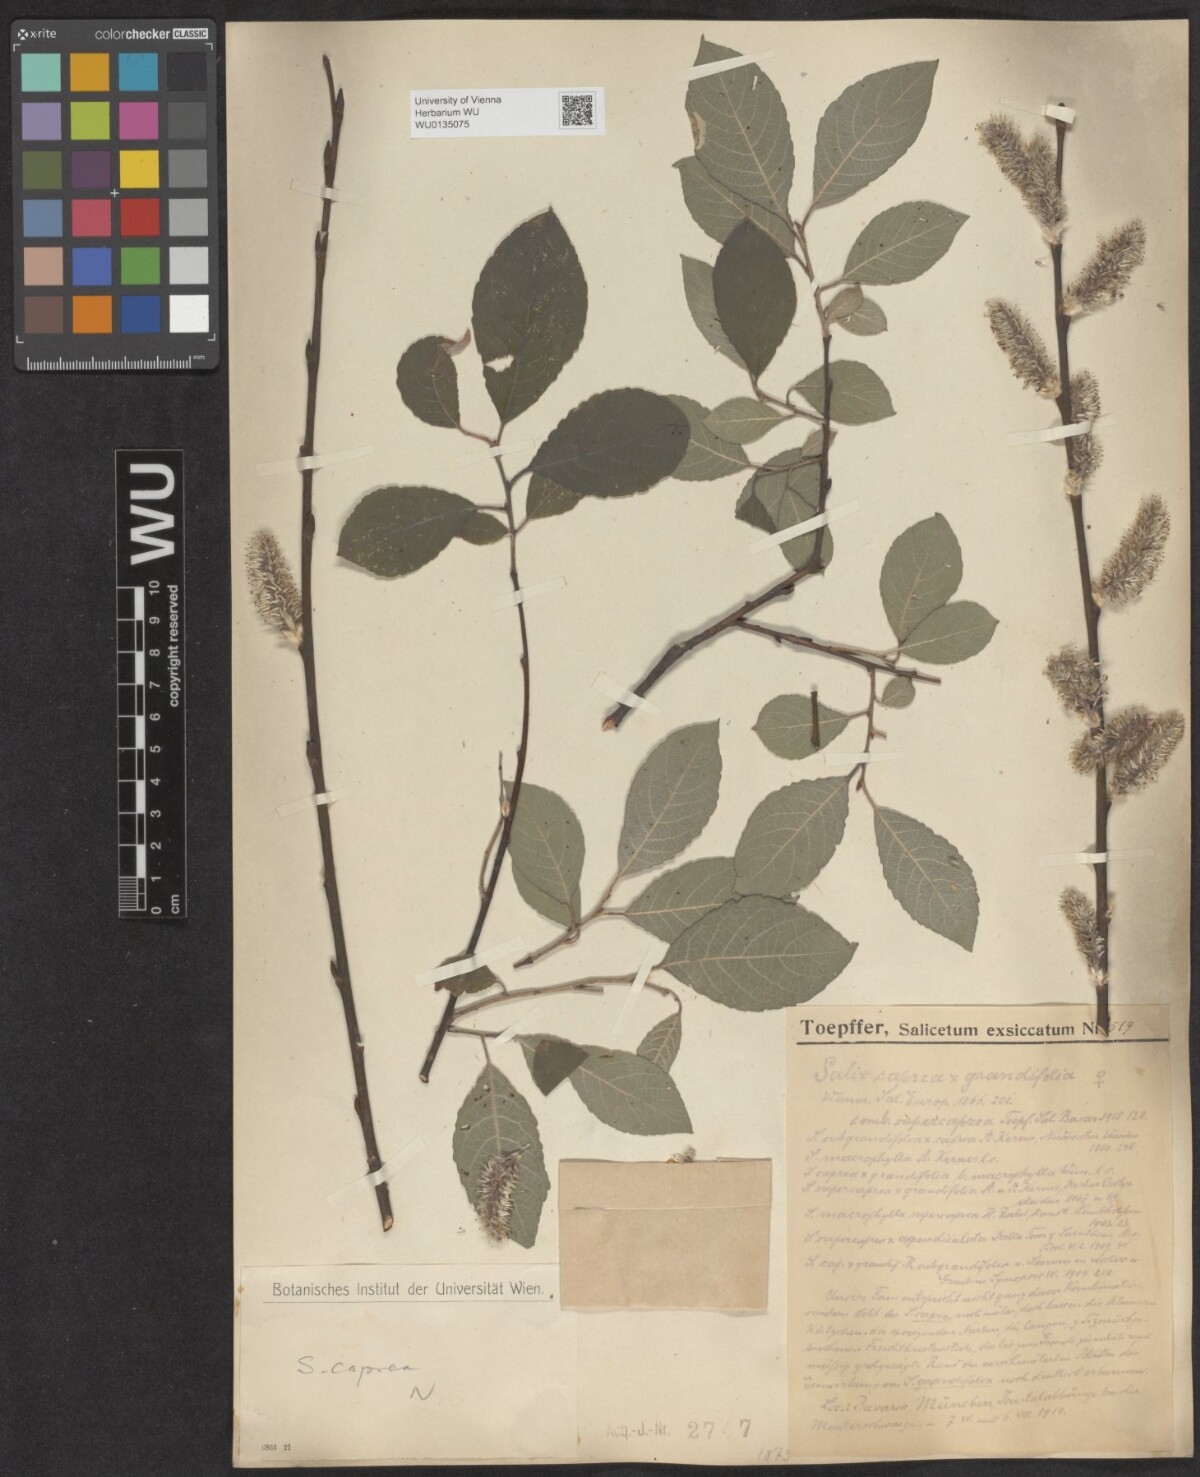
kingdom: Plantae
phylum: Tracheophyta
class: Magnoliopsida
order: Malpighiales
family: Salicaceae
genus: Salix
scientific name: Salix caprea
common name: Goat willow
